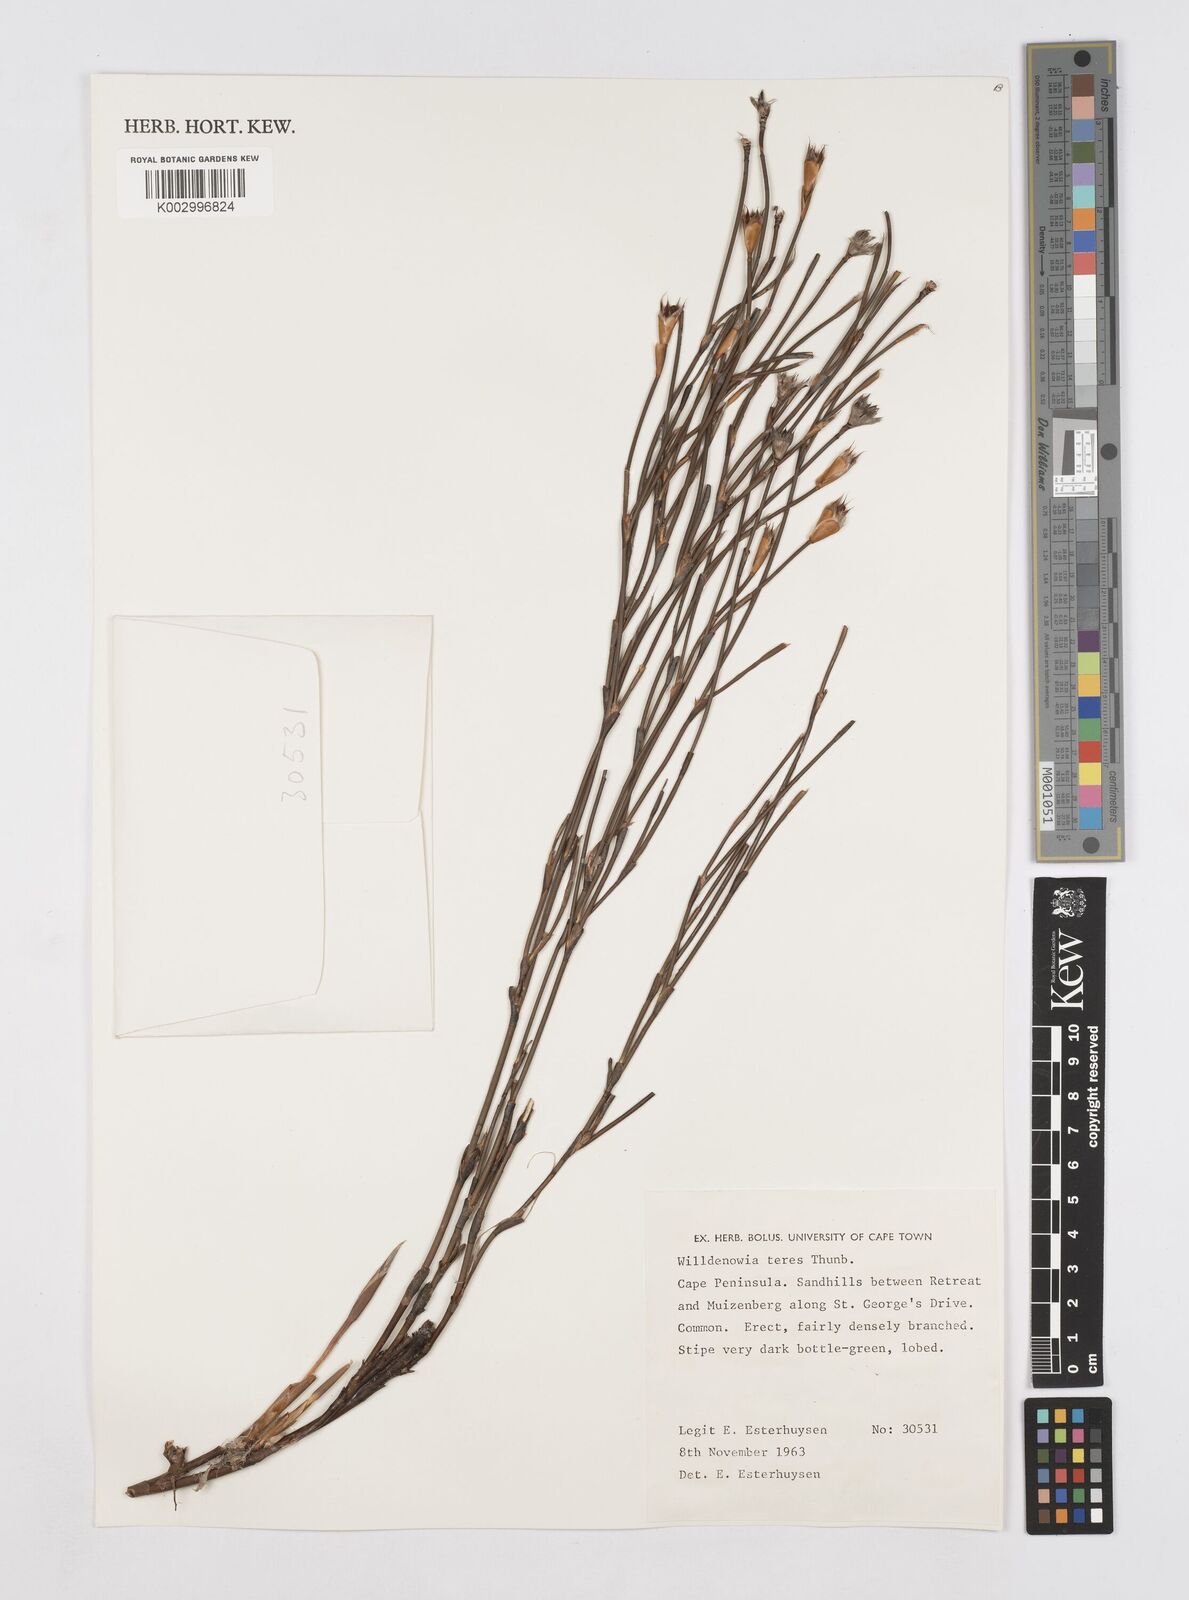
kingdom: Plantae
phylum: Tracheophyta
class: Liliopsida
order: Poales
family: Restionaceae
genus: Willdenowia
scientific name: Willdenowia teres
